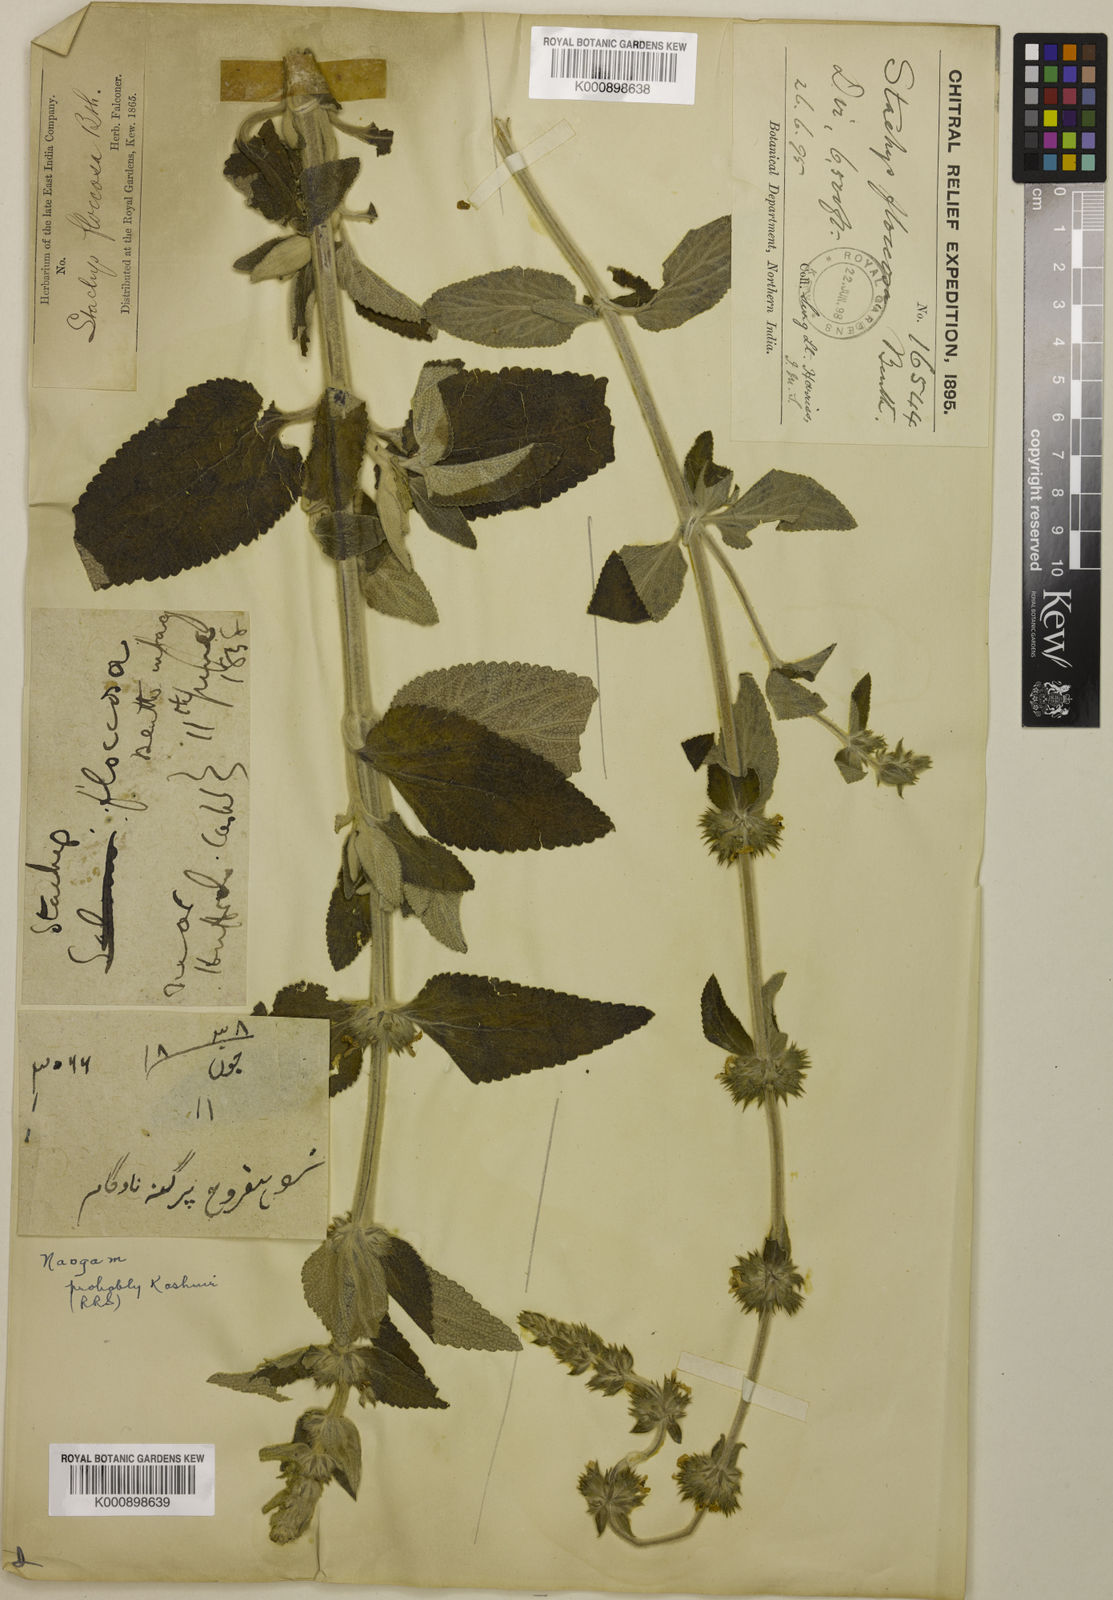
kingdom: Plantae
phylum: Tracheophyta
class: Magnoliopsida
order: Lamiales
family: Lamiaceae
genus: Stachys
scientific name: Stachys floccosa
